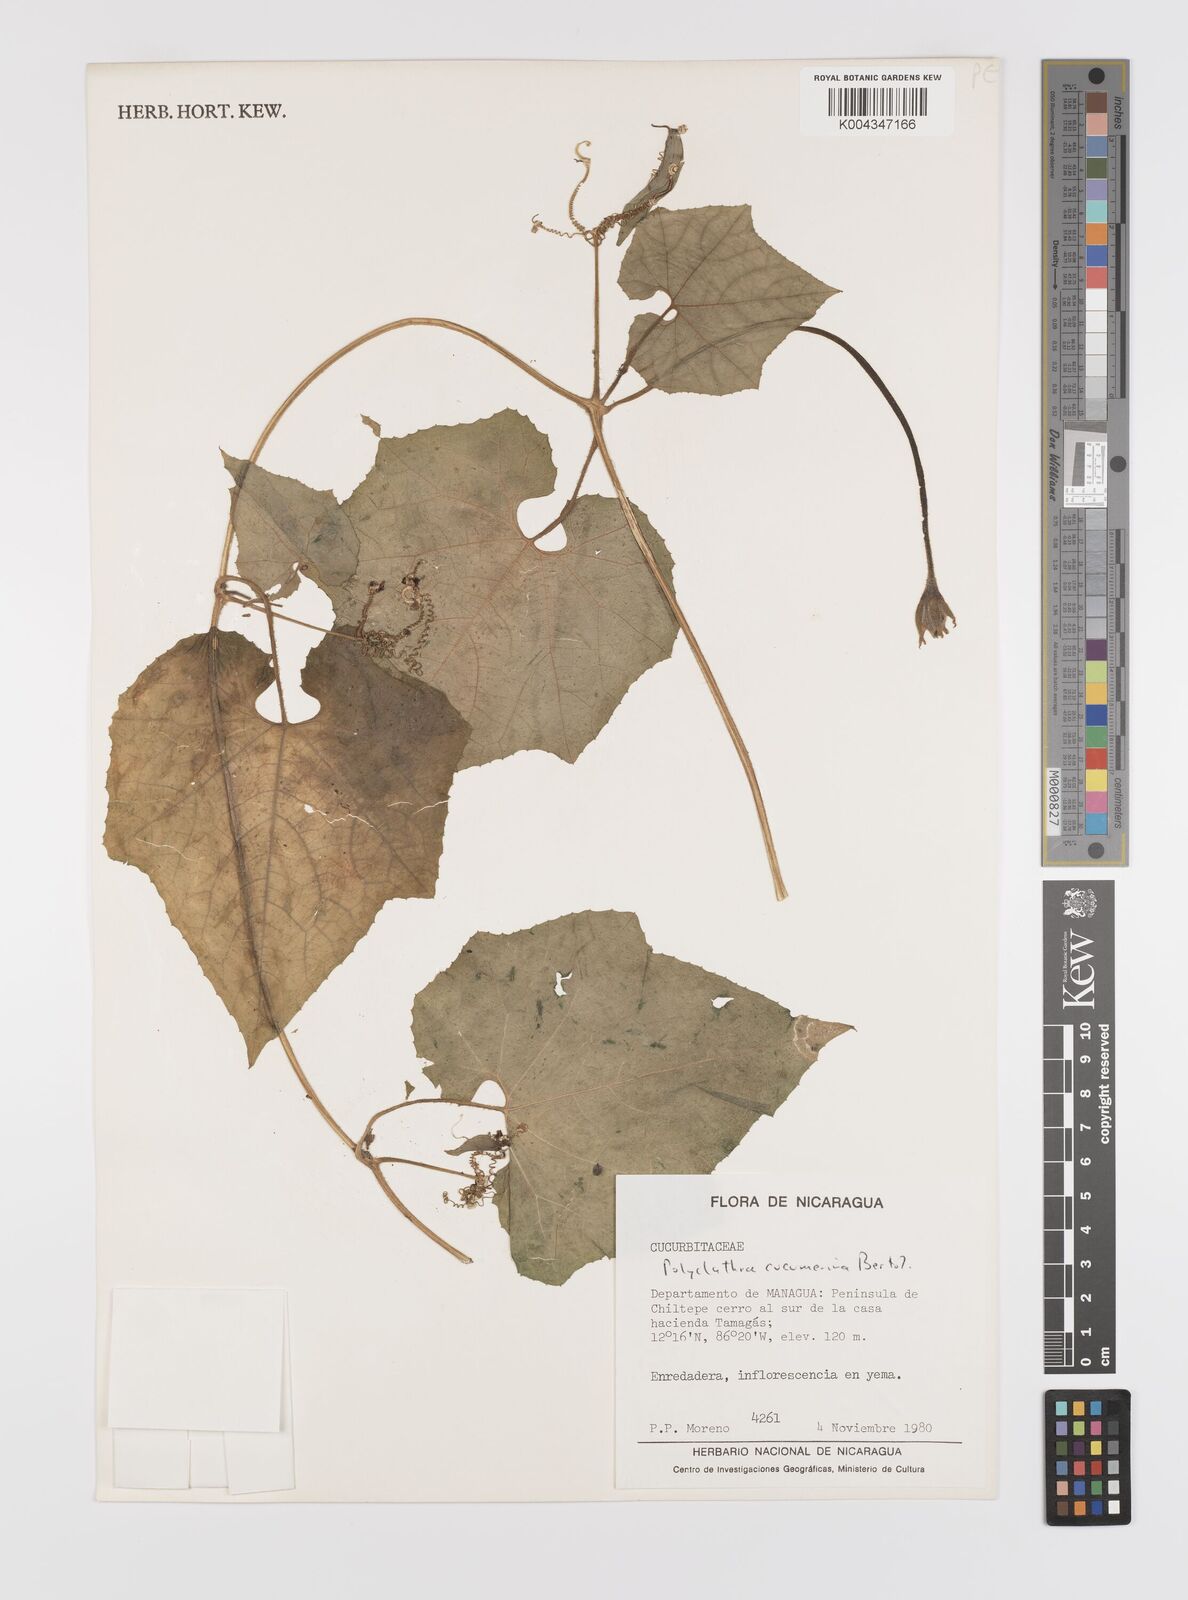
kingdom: Plantae
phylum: Tracheophyta
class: Magnoliopsida
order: Cucurbitales
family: Cucurbitaceae
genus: Polyclathra
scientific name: Polyclathra cucumerina
